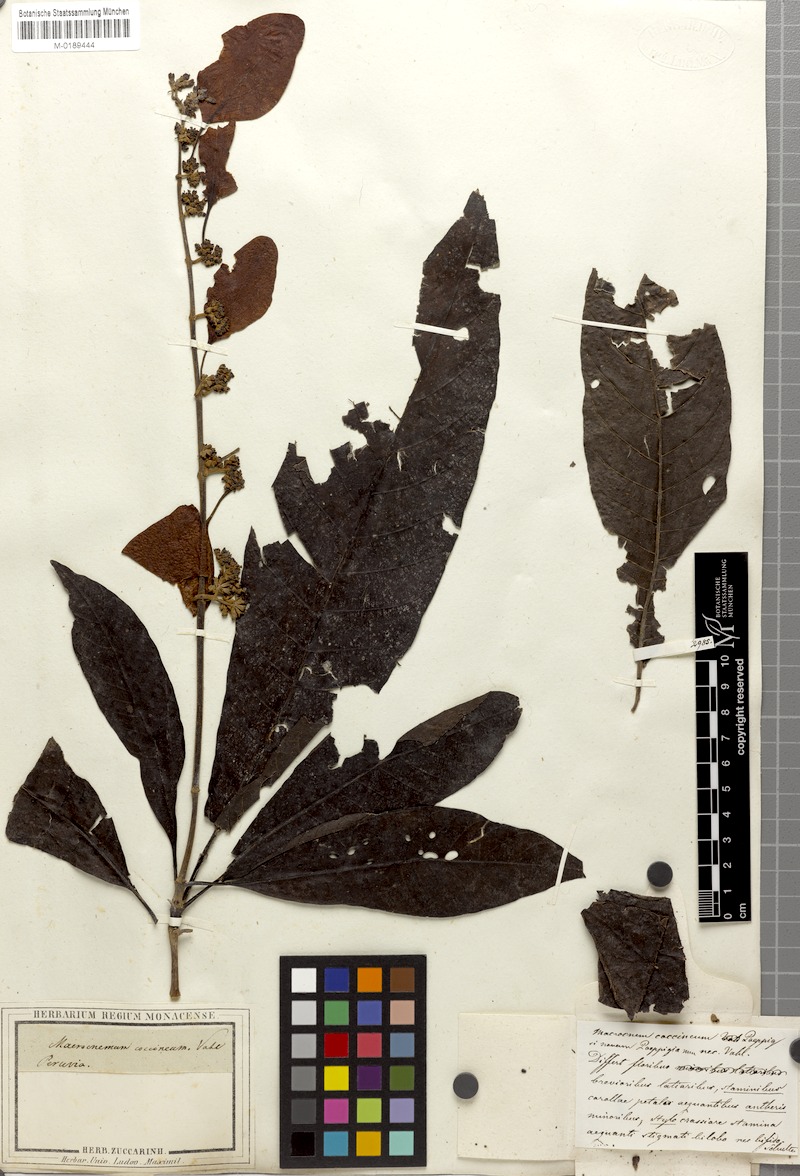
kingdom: Plantae
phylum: Tracheophyta
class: Magnoliopsida
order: Gentianales
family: Rubiaceae
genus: Warszewiczia
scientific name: Warszewiczia coccinea
